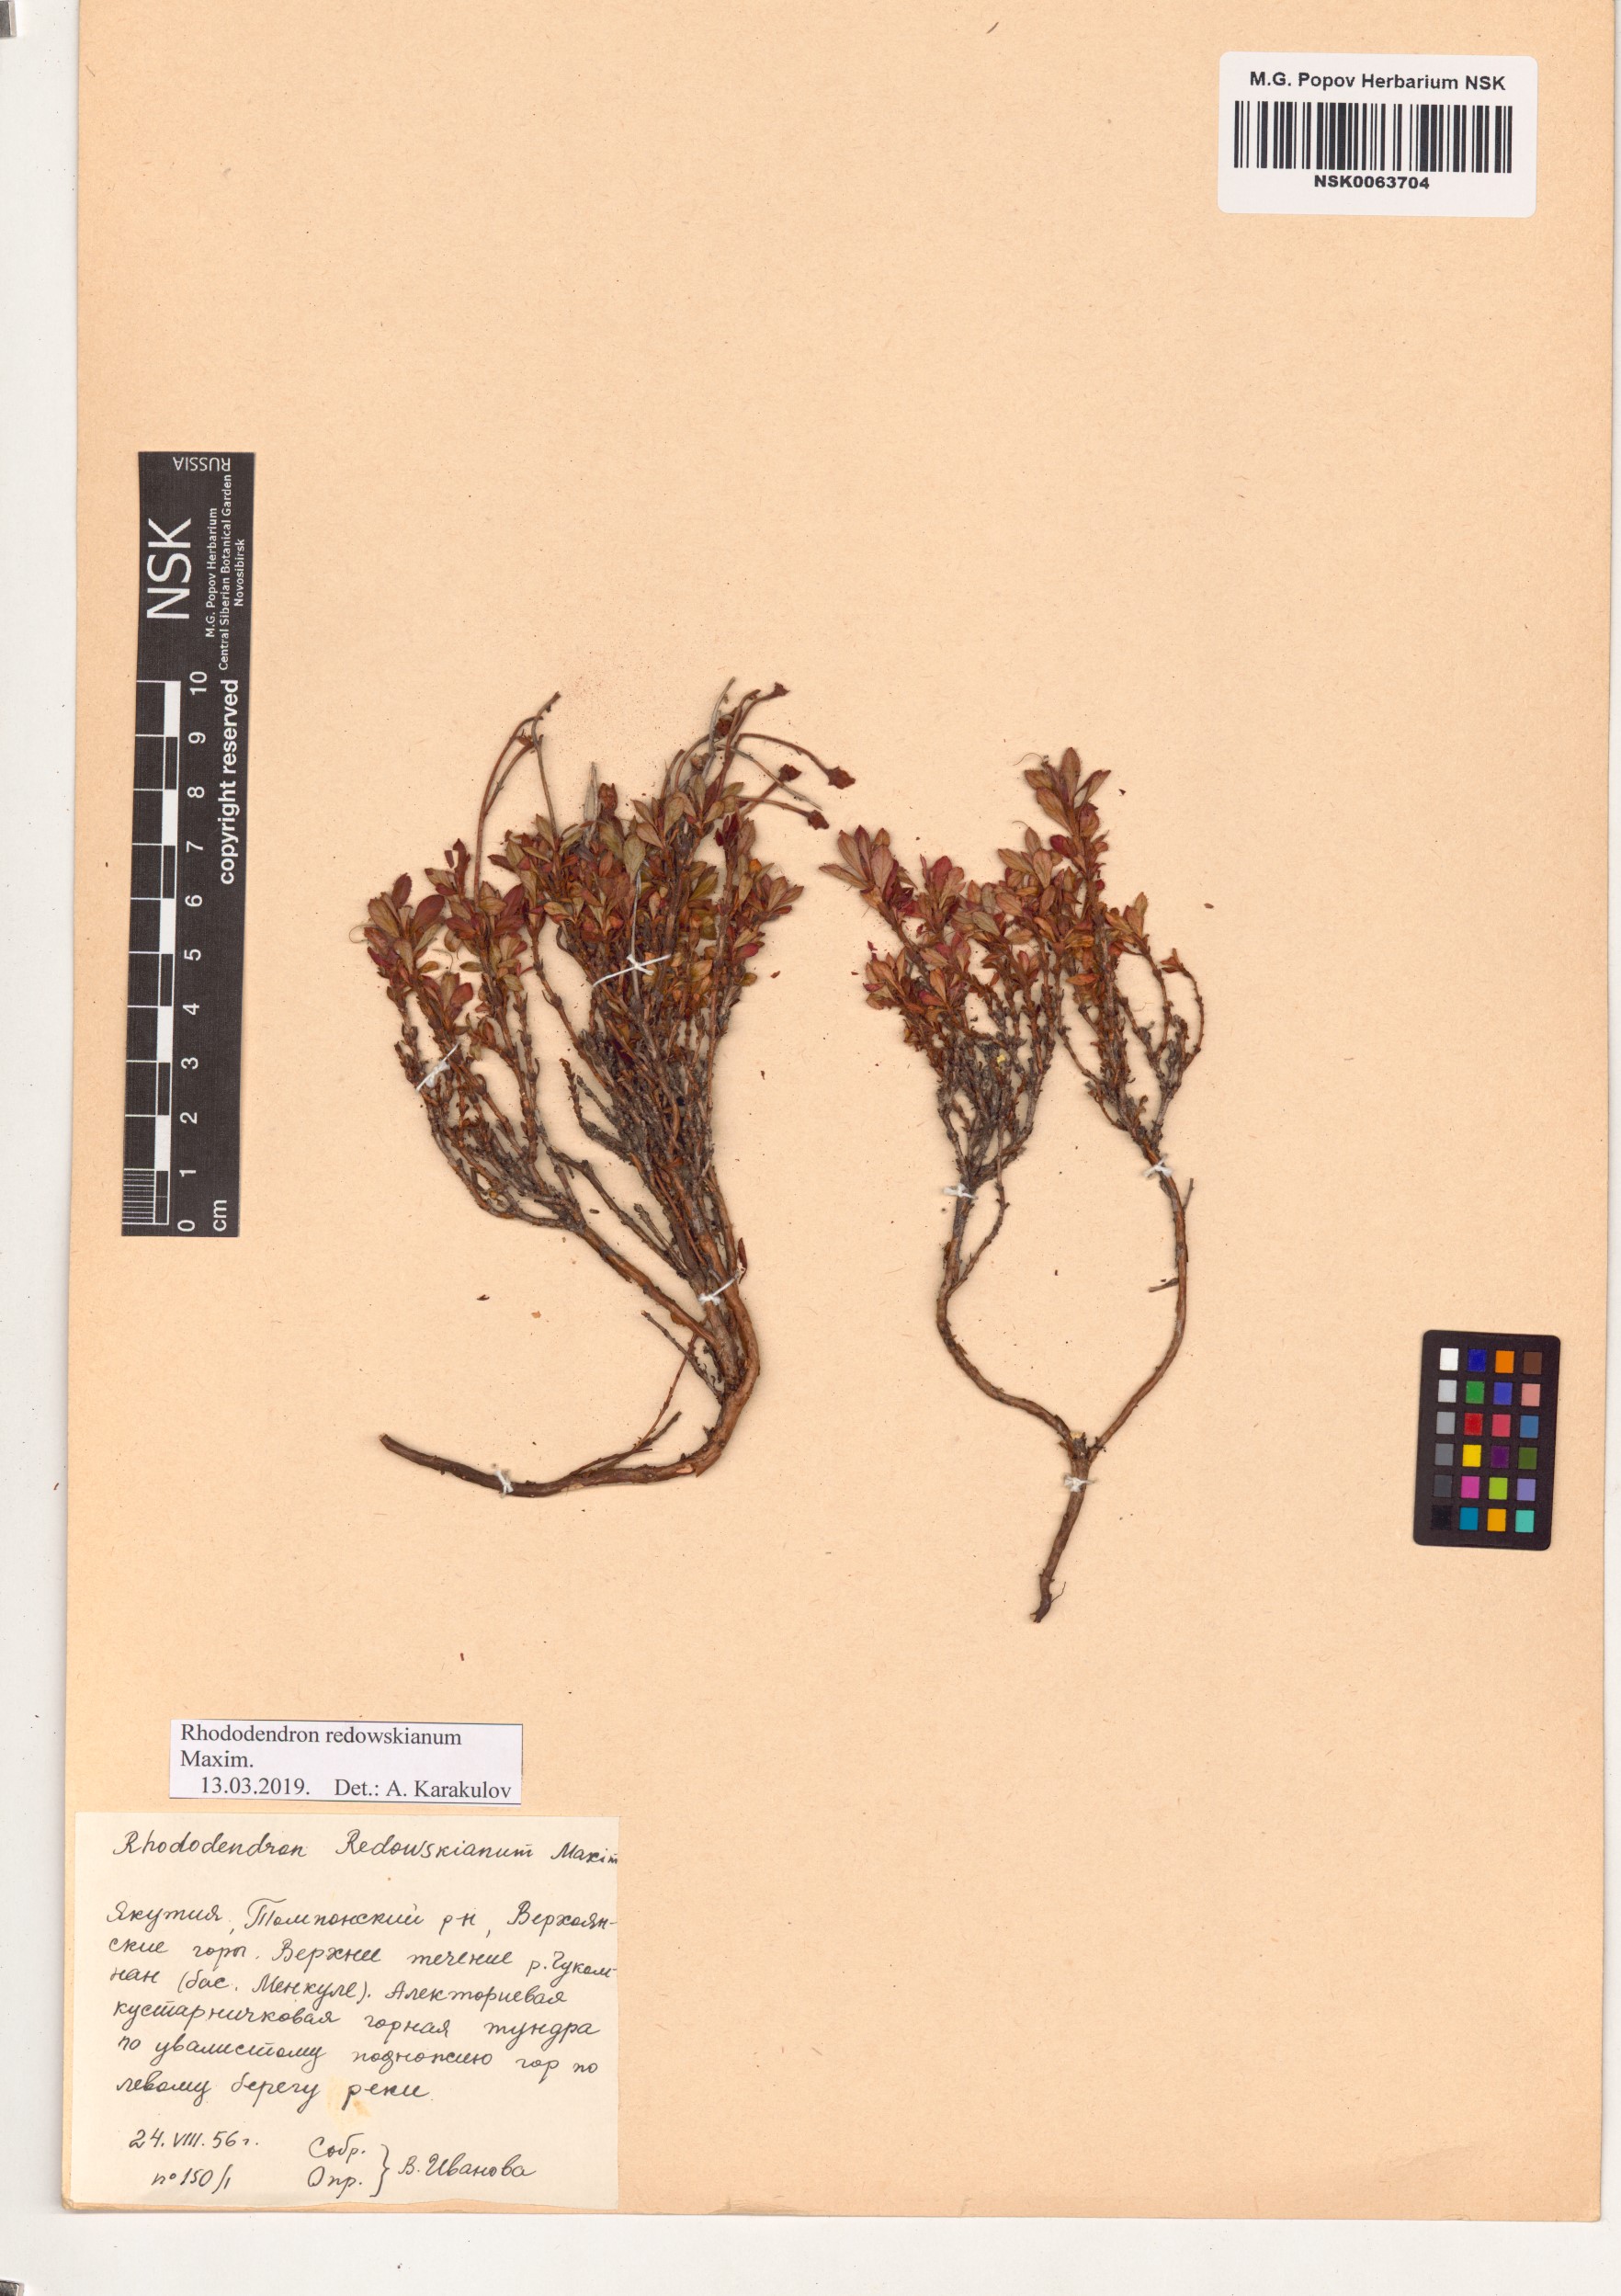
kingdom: Plantae
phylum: Tracheophyta
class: Magnoliopsida
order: Ericales
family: Ericaceae
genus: Rhododendron
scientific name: Rhododendron redowskianum
